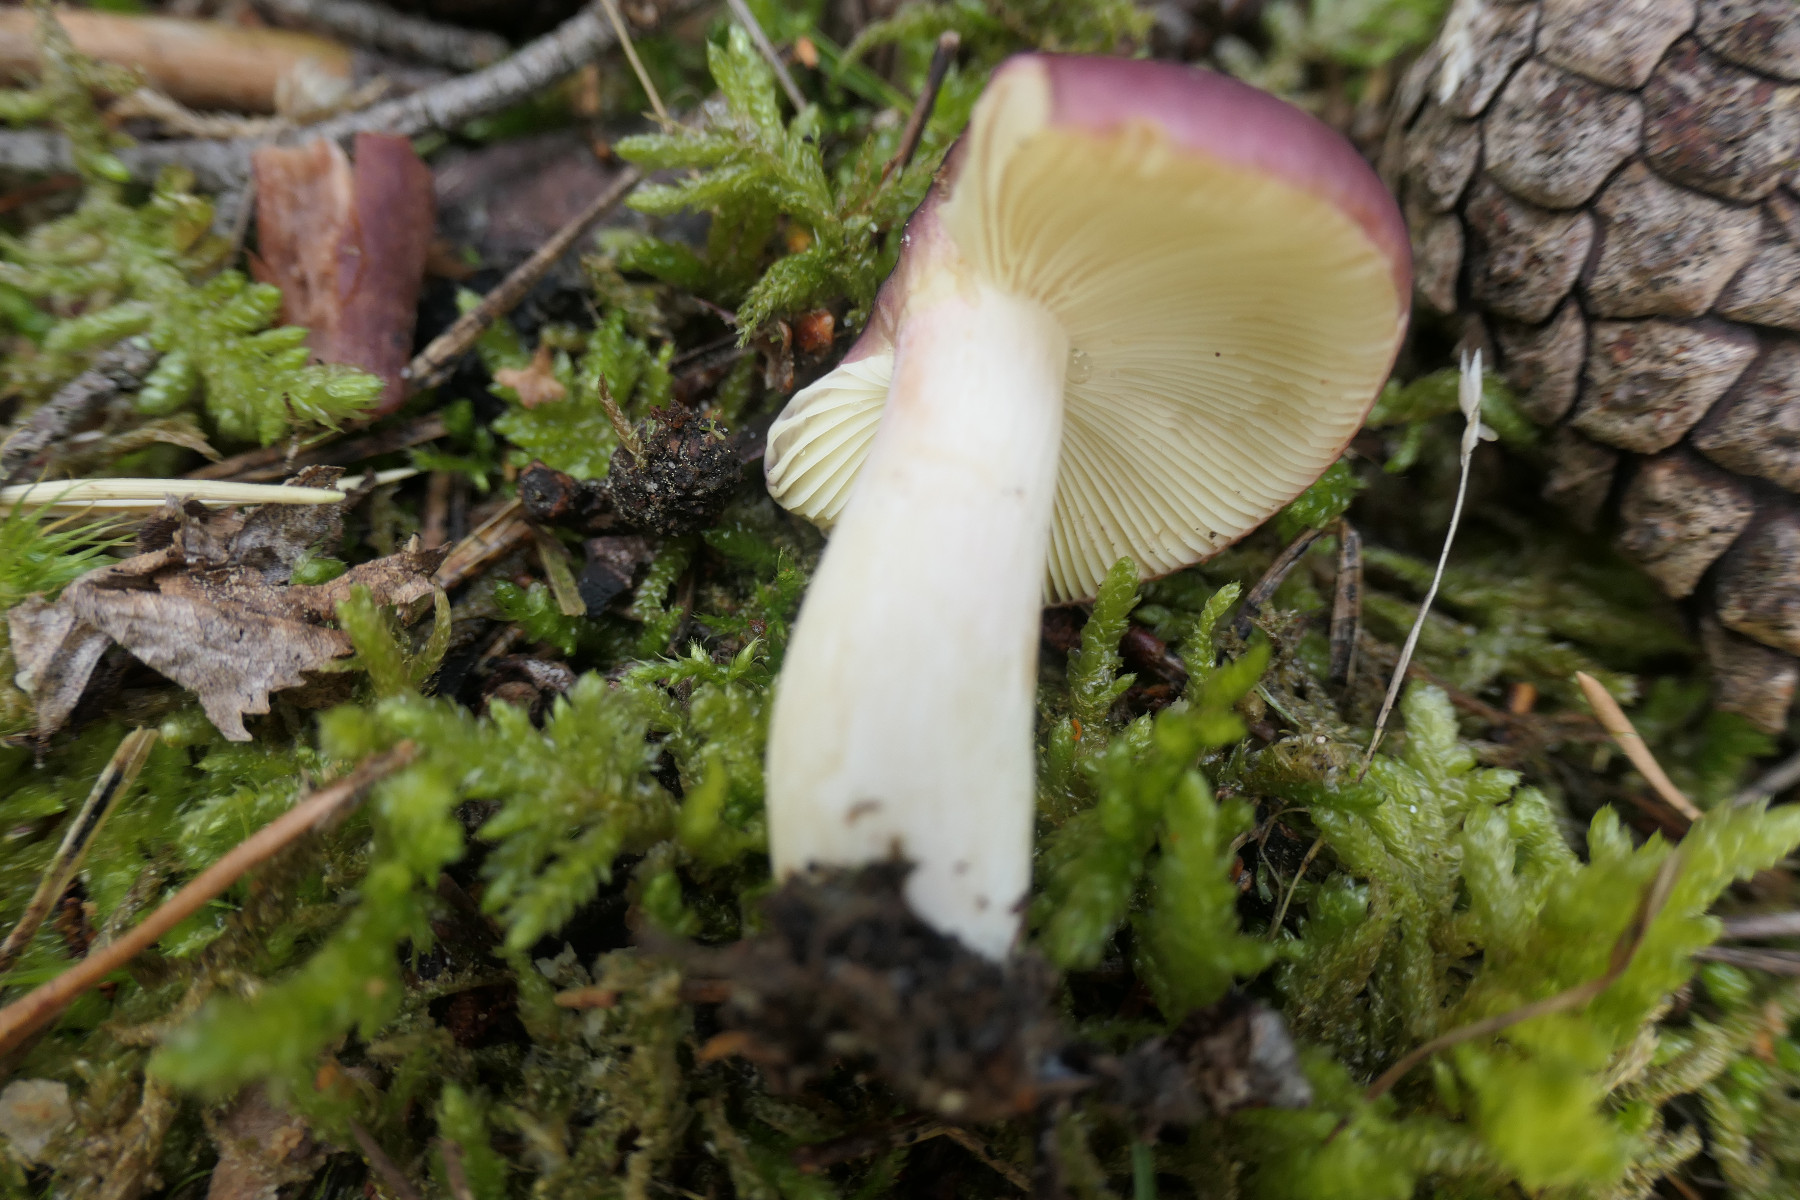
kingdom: Fungi
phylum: Basidiomycota
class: Agaricomycetes
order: Russulales
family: Russulaceae
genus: Russula
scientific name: Russula sardonia
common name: citronbladet skørhat
